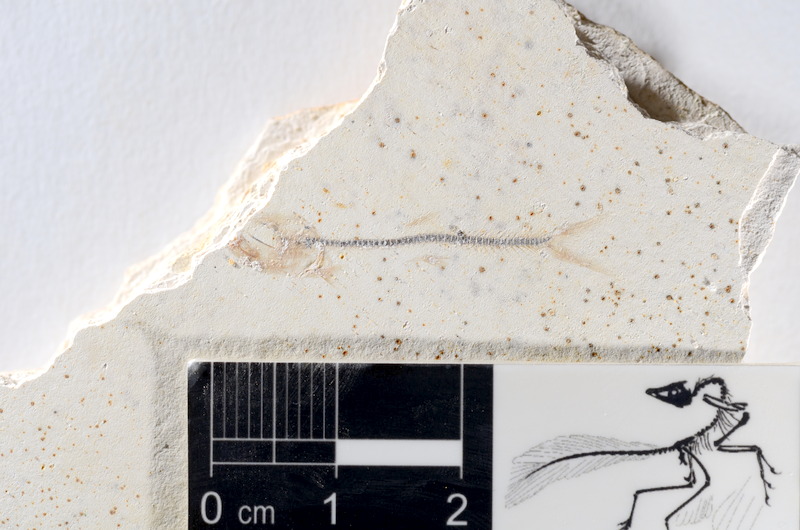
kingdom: Animalia
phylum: Chordata
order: Salmoniformes
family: Orthogonikleithridae
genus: Orthogonikleithrus
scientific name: Orthogonikleithrus hoelli
